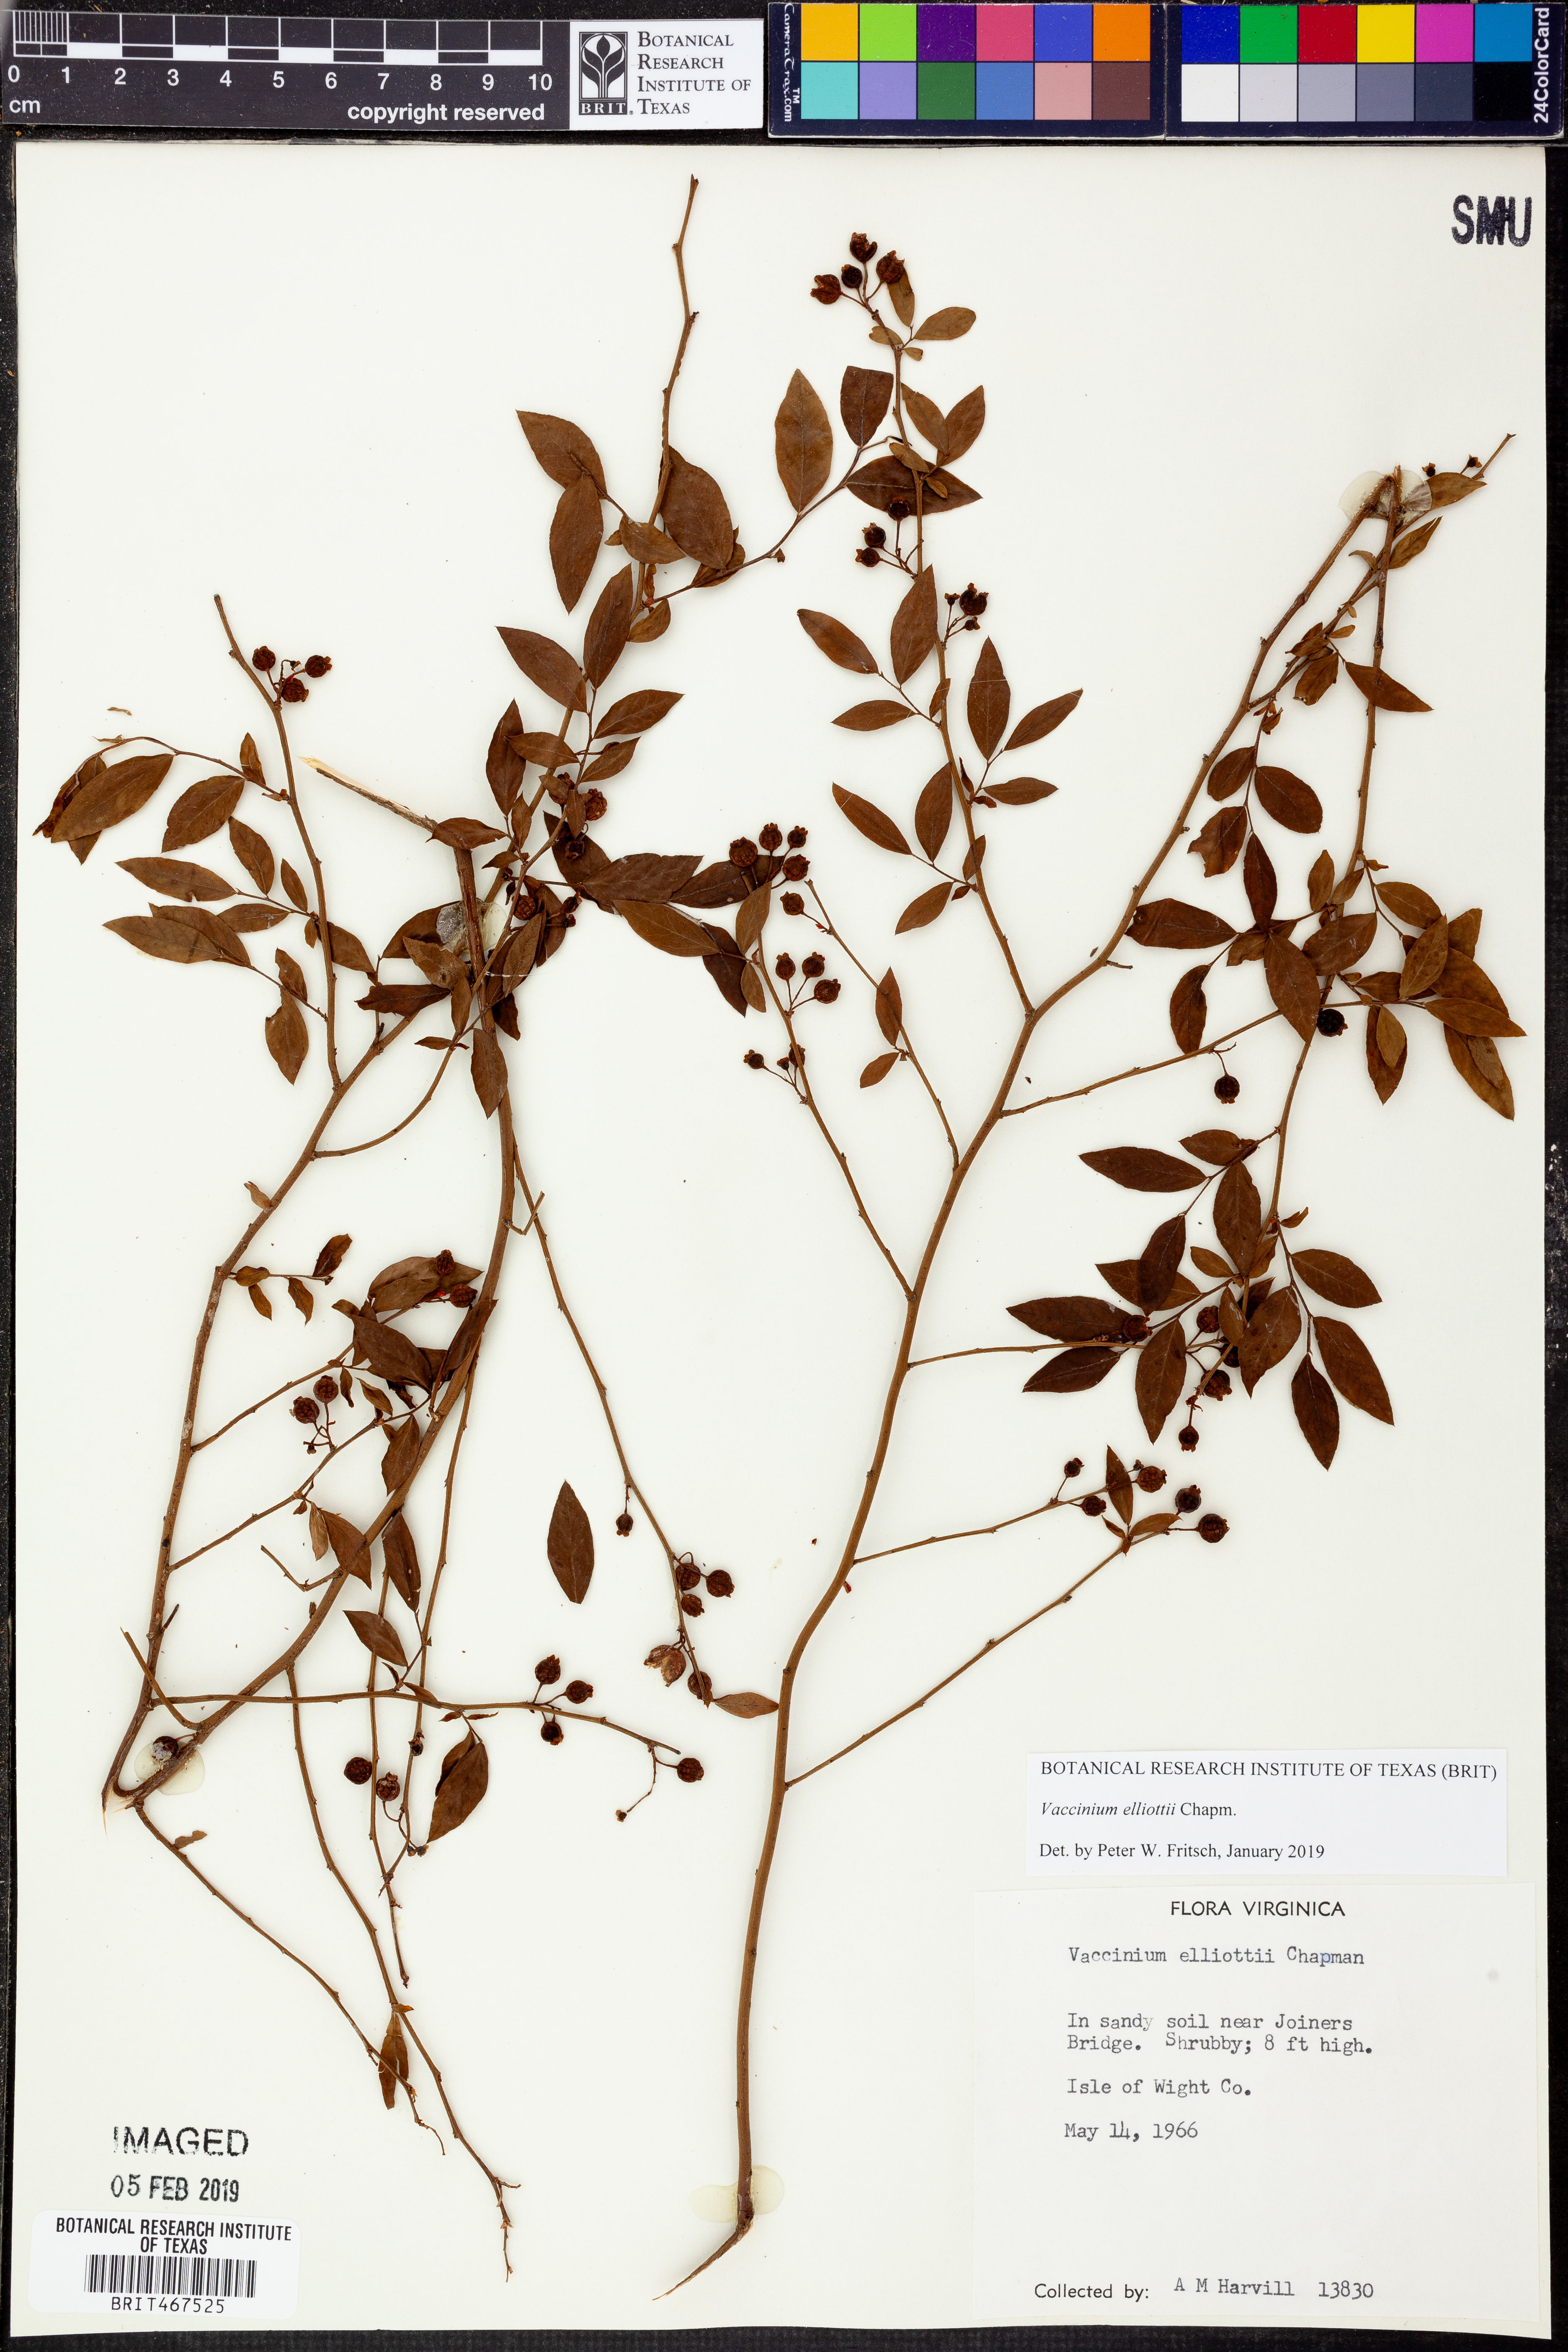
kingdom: Plantae
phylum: Tracheophyta
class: Magnoliopsida
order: Ericales
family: Ericaceae
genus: Vaccinium
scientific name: Vaccinium corymbosum
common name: Blueberry
